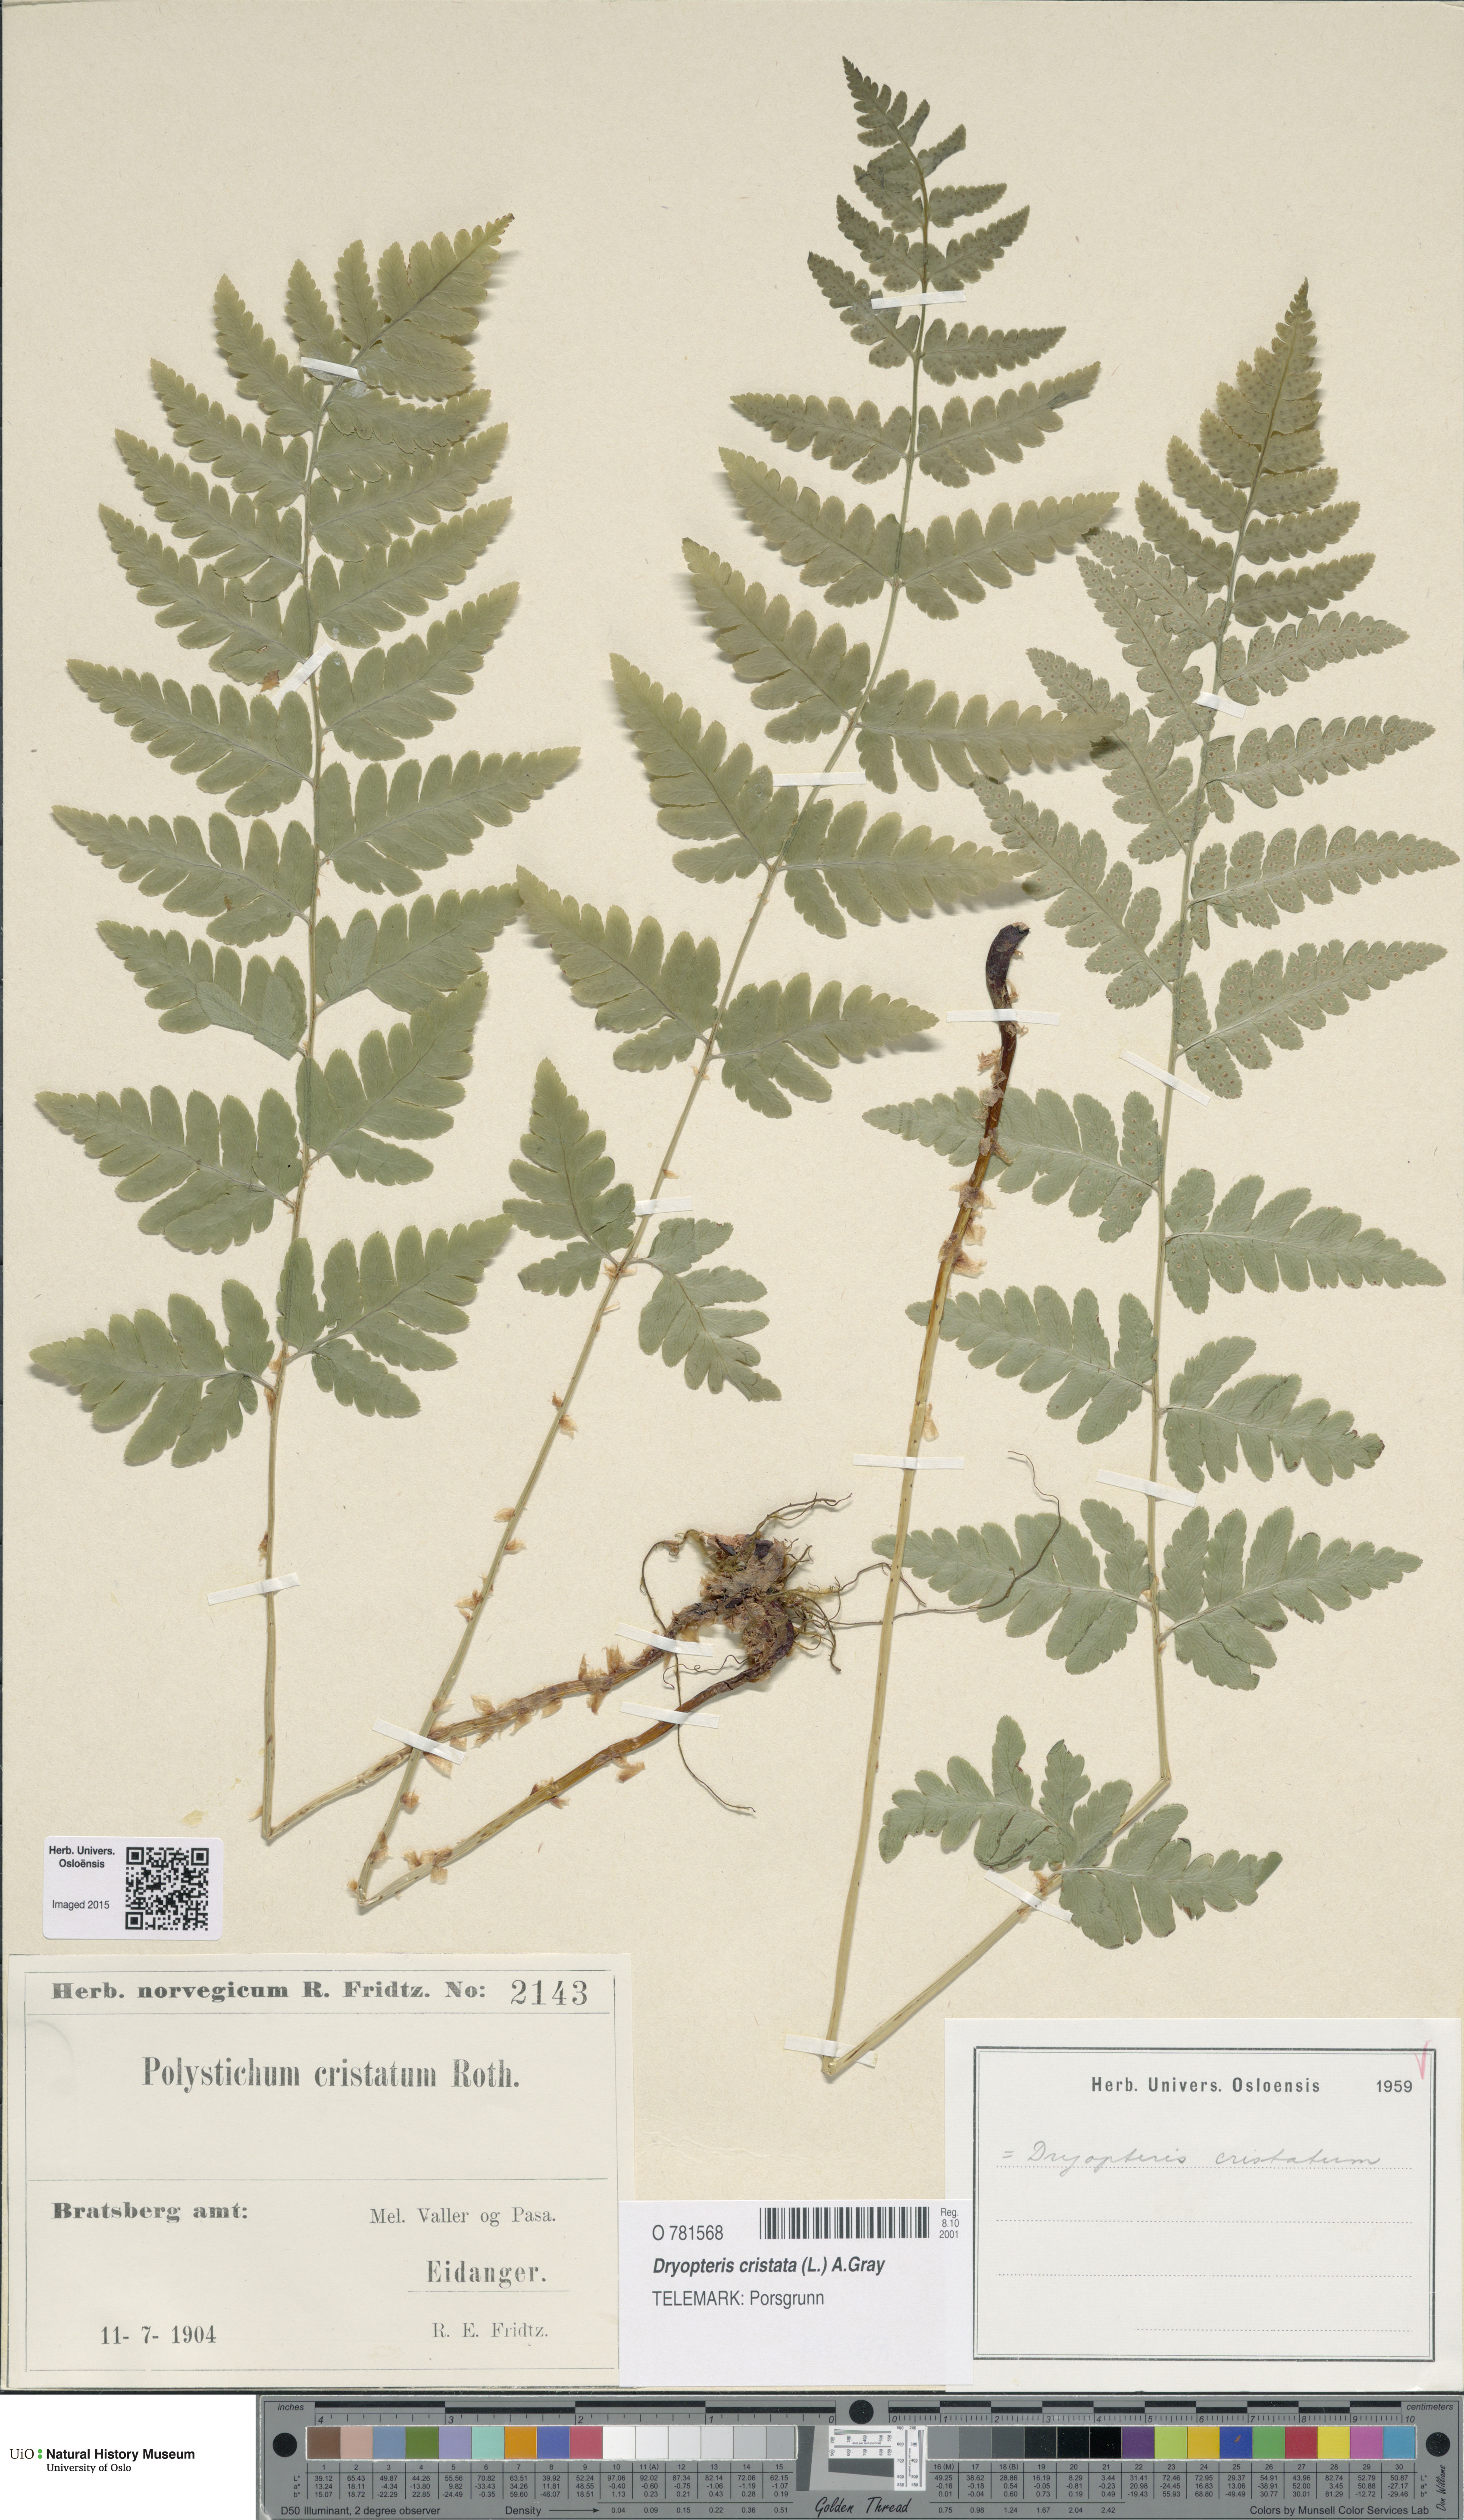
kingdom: Plantae
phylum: Tracheophyta
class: Polypodiopsida
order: Polypodiales
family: Dryopteridaceae
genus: Dryopteris
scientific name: Dryopteris cristata
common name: Crested wood fern
